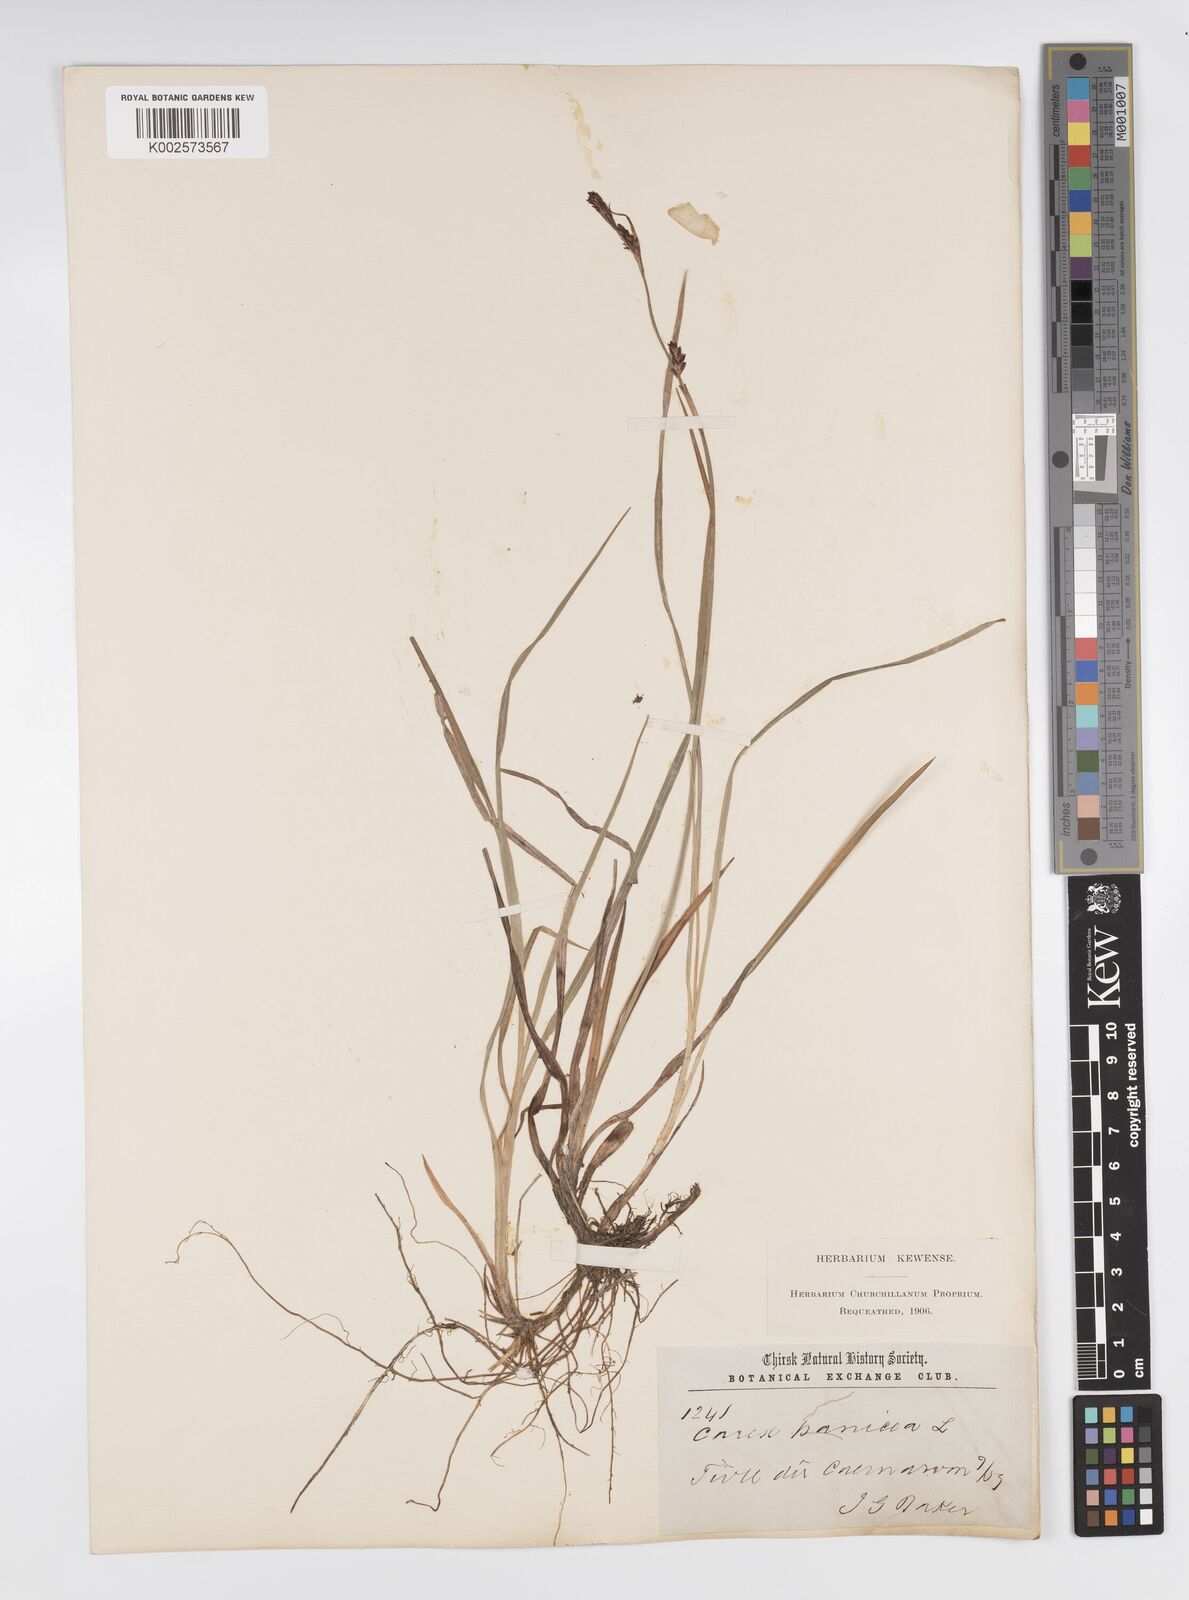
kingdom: Plantae
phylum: Tracheophyta
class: Liliopsida
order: Poales
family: Cyperaceae
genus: Carex
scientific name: Carex panicea
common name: Carnation sedge
